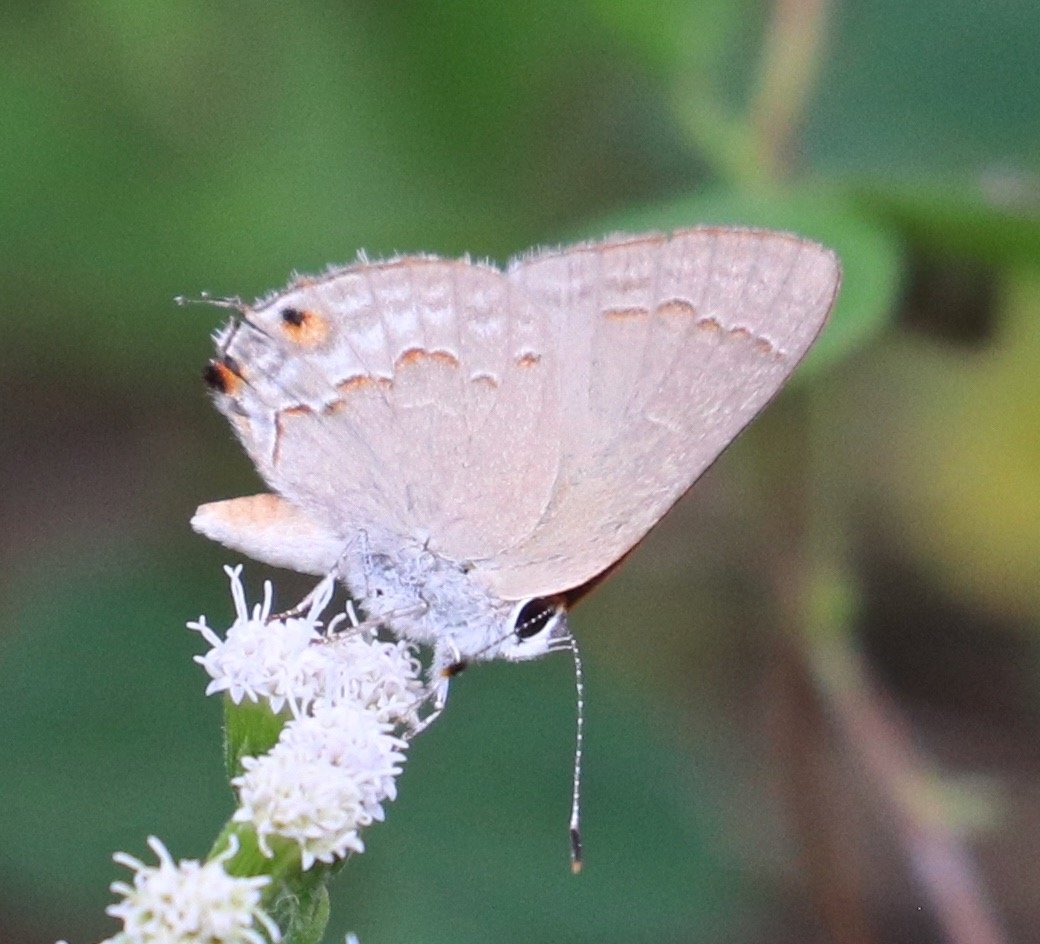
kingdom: Animalia
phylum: Arthropoda
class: Insecta
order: Lepidoptera
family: Lycaenidae
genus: Thecla
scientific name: Thecla rufofusca
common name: Red-crescent Scrub-Hairstreak
